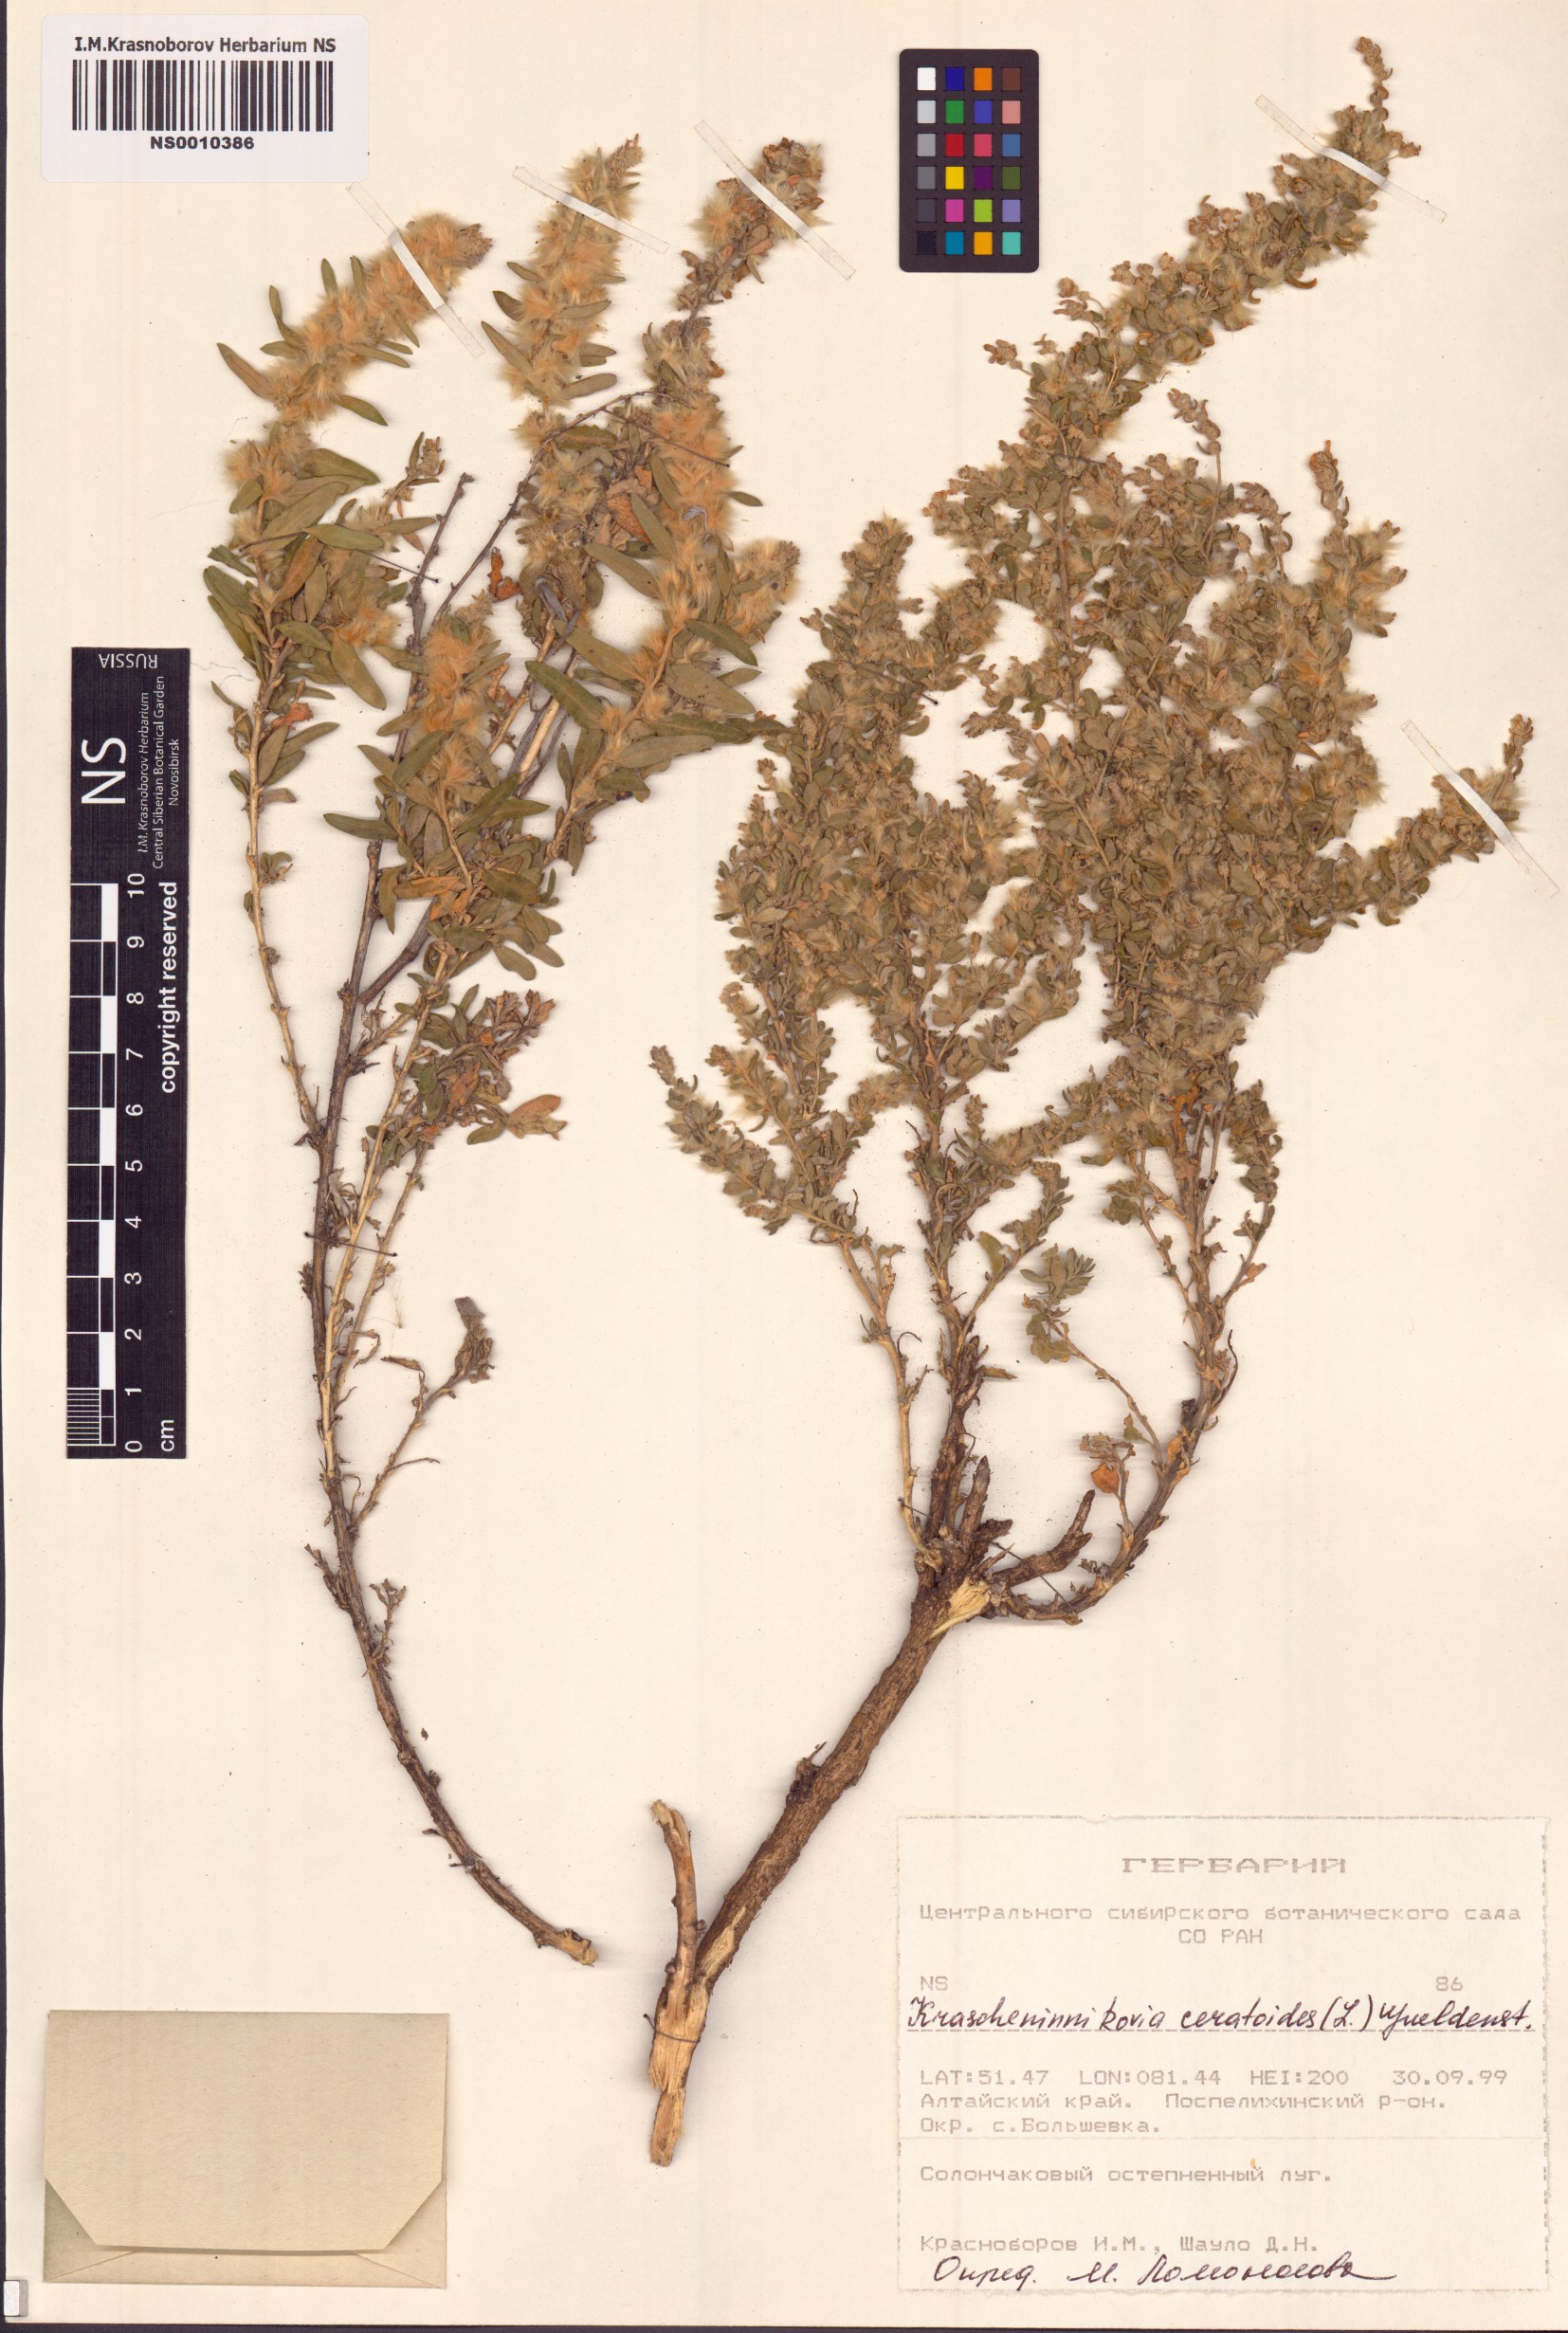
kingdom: Plantae
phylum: Tracheophyta
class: Magnoliopsida
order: Caryophyllales
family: Amaranthaceae
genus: Krascheninnikovia
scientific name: Krascheninnikovia ceratoides
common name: Pamirian winterfat
